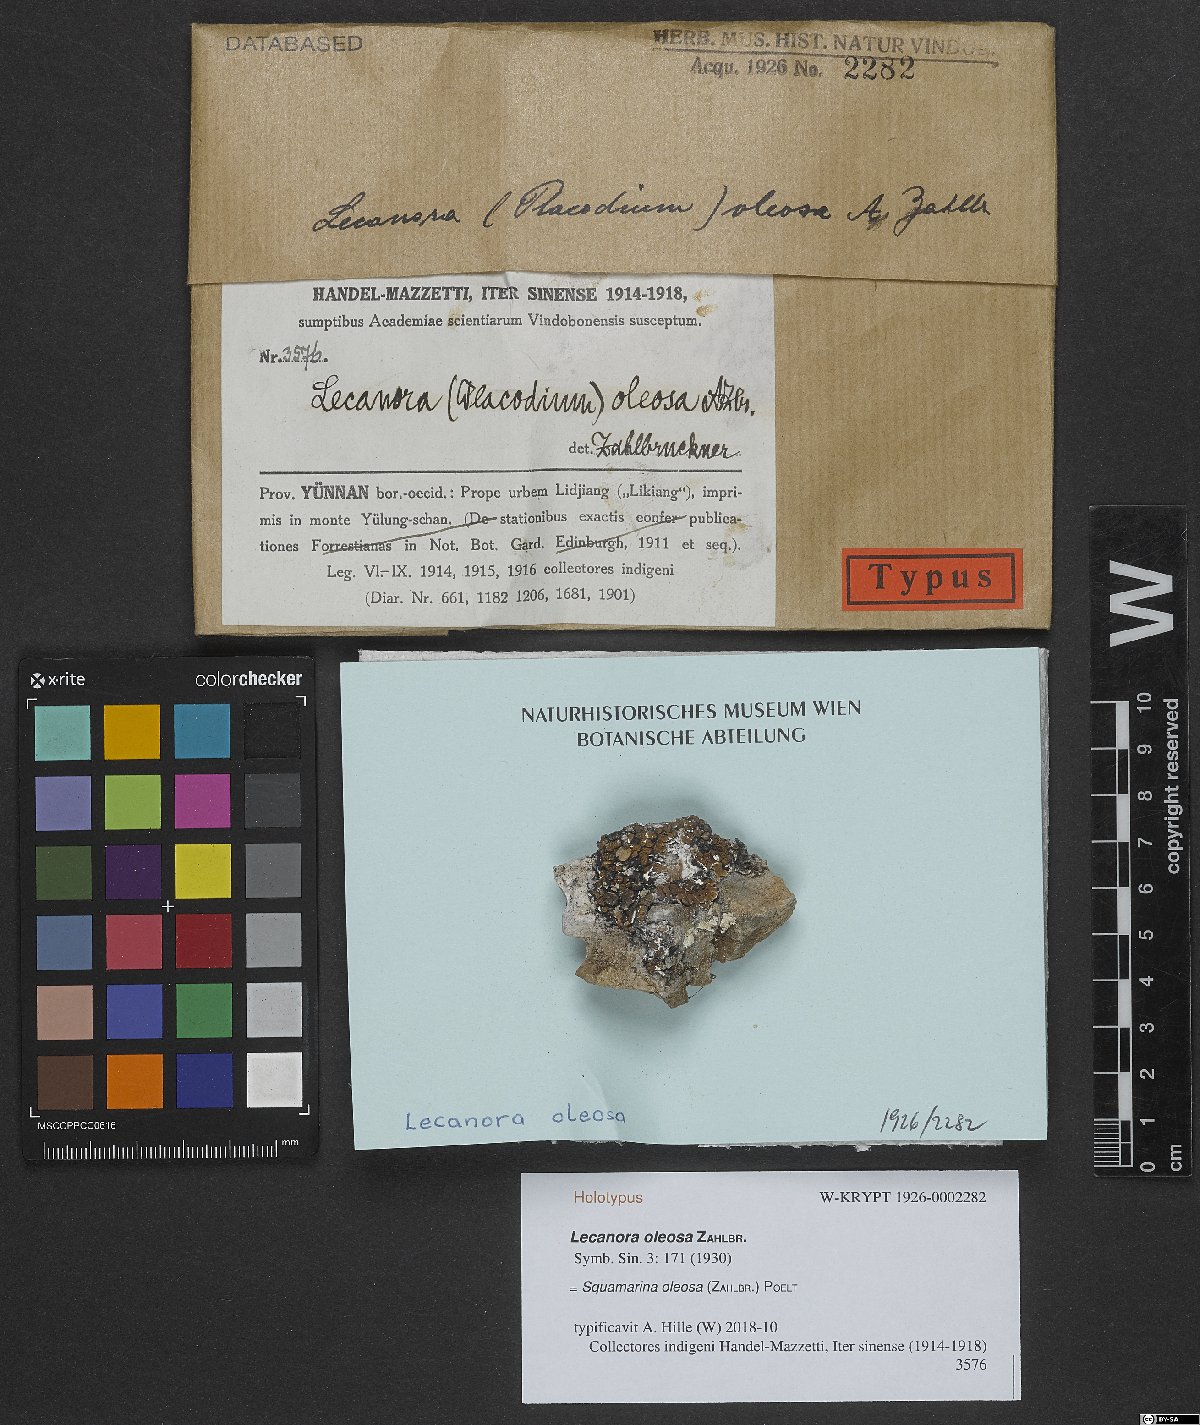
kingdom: Fungi
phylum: Ascomycota
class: Lecanoromycetes
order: Lecanorales
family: Stereocaulaceae
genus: Squamarina
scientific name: Squamarina oleosa
